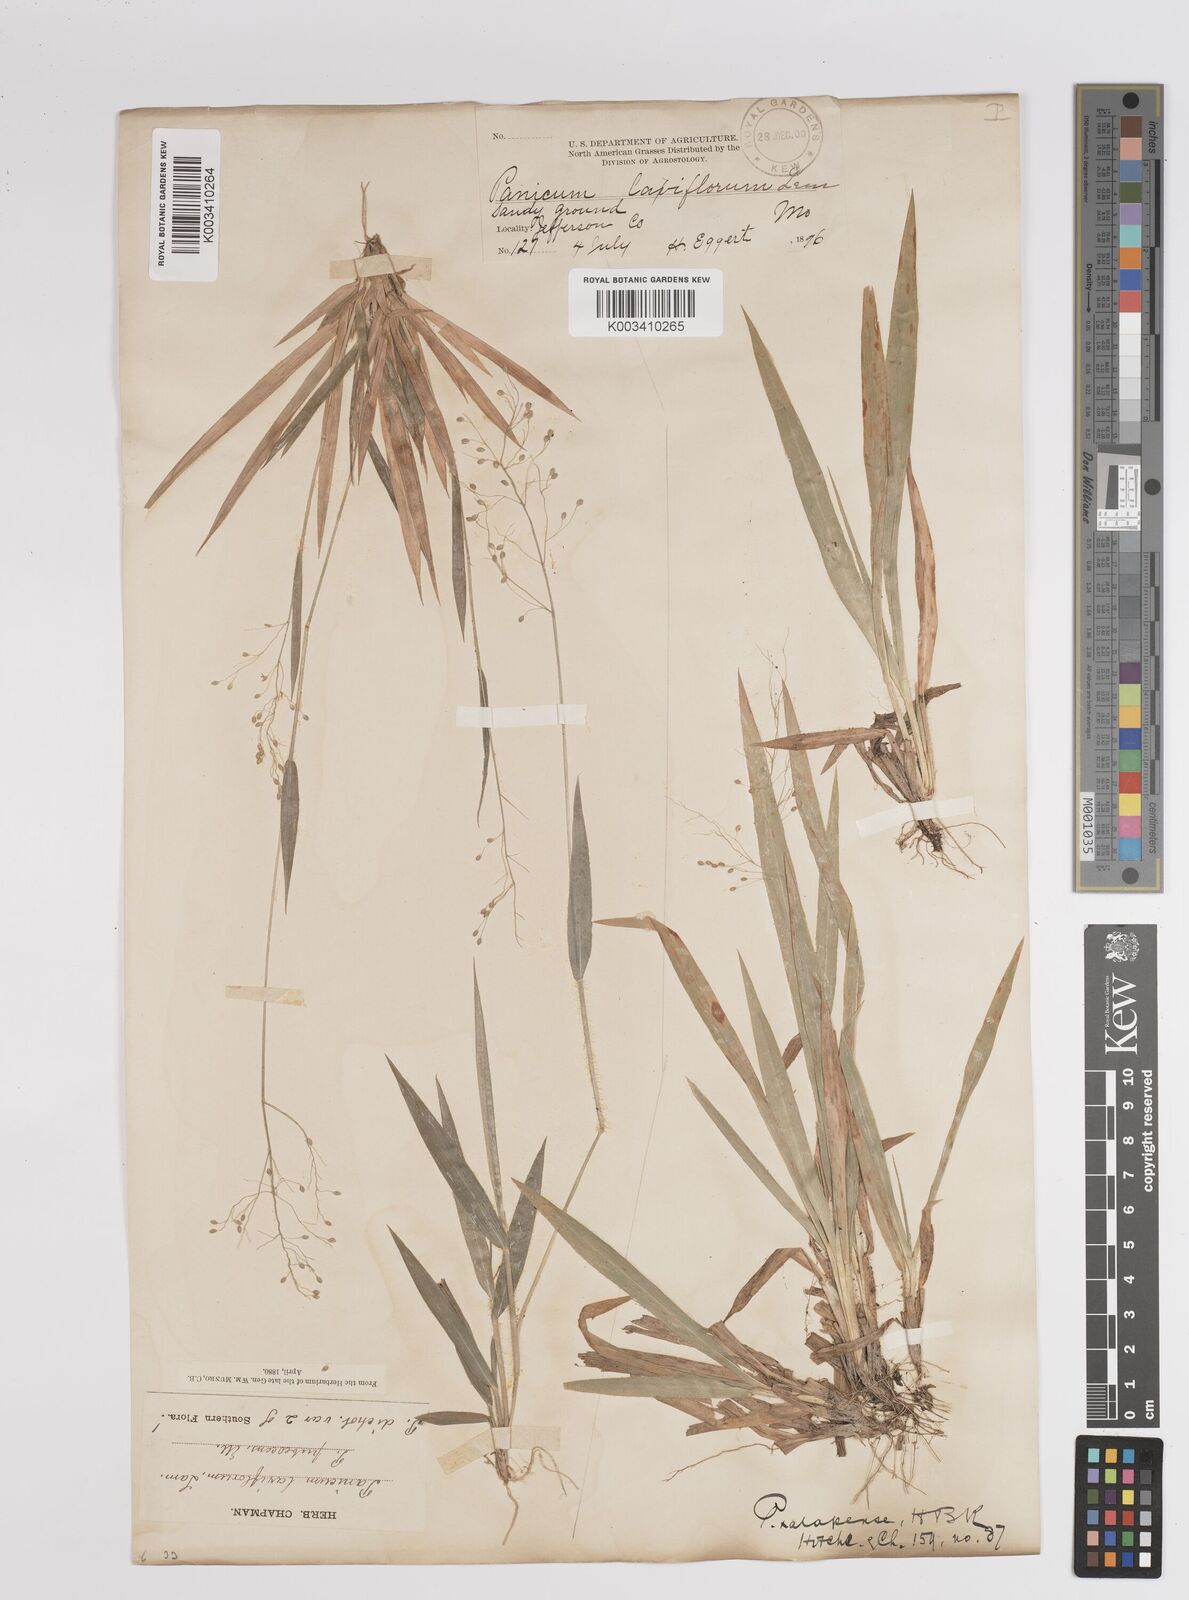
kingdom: Plantae
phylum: Tracheophyta
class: Liliopsida
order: Poales
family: Poaceae
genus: Dichanthelium
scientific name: Dichanthelium laxiflorum
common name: Soft-tuft panic grass
